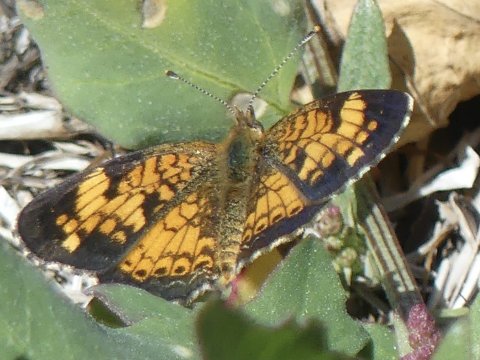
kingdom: Animalia
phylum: Arthropoda
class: Insecta
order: Lepidoptera
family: Nymphalidae
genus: Phyciodes
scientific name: Phyciodes
